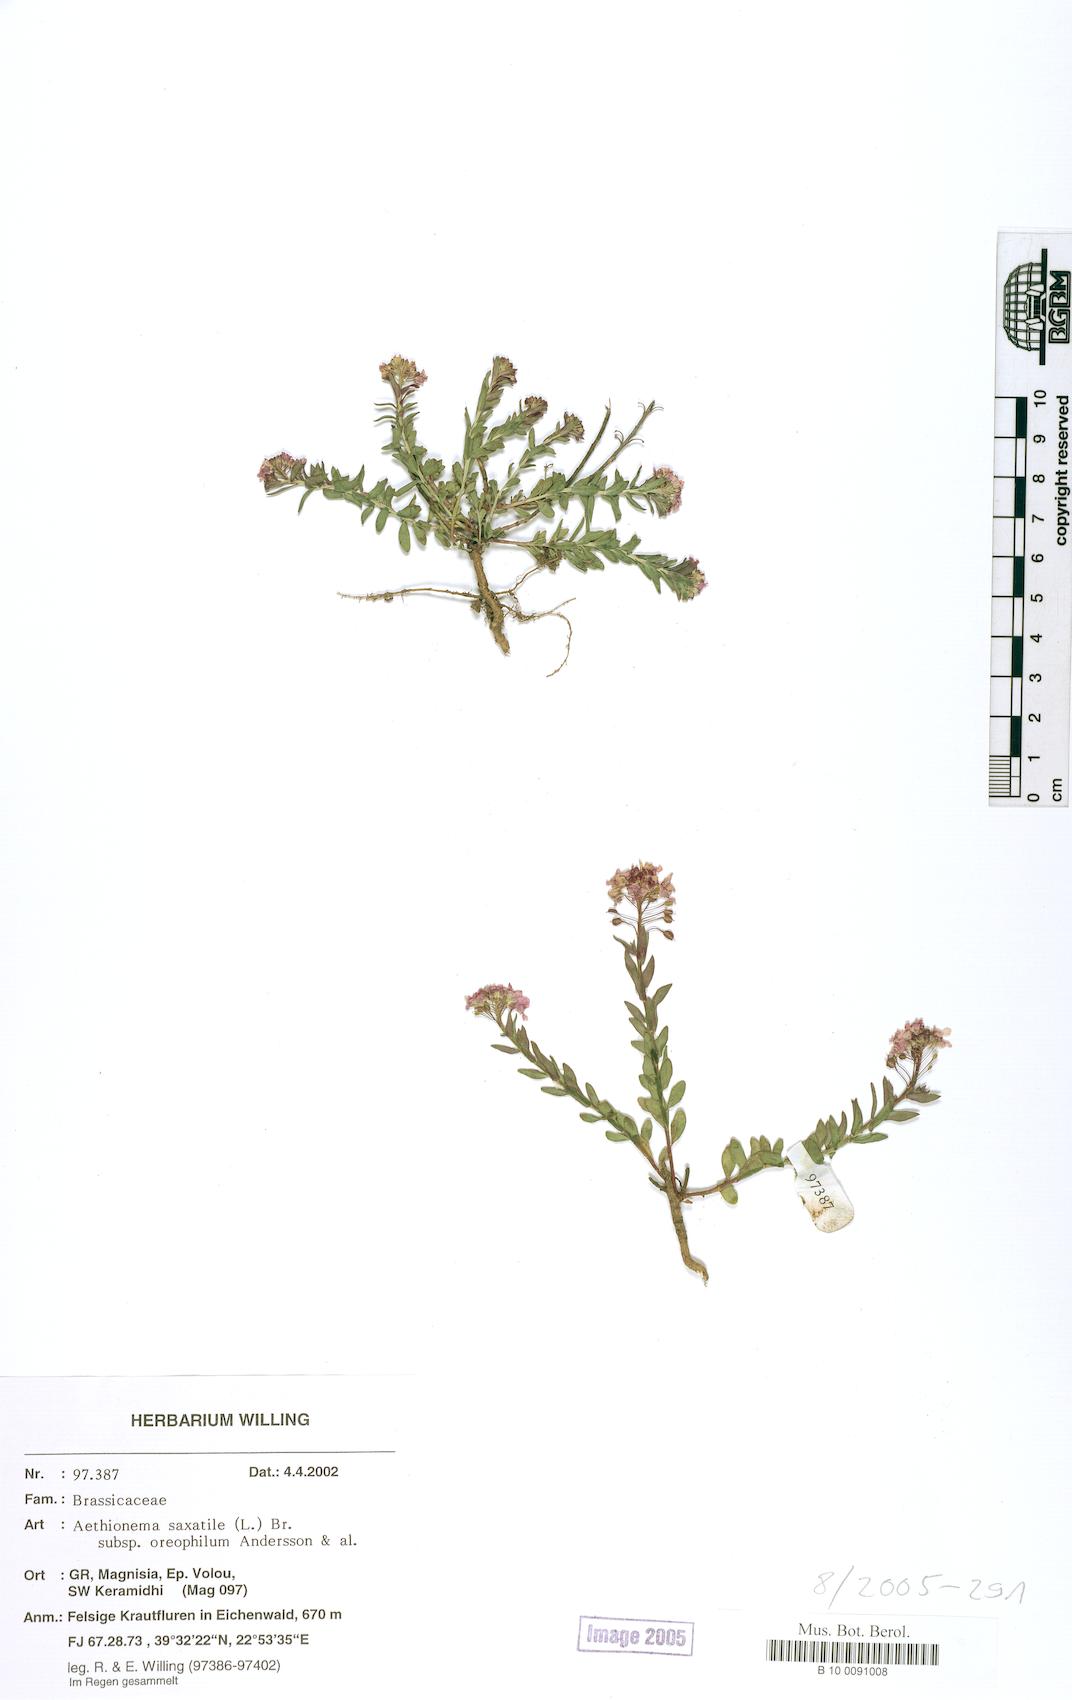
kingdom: Plantae
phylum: Tracheophyta
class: Magnoliopsida
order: Brassicales
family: Brassicaceae
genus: Aethionema
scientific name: Aethionema saxatile
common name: Burnt candytuft
